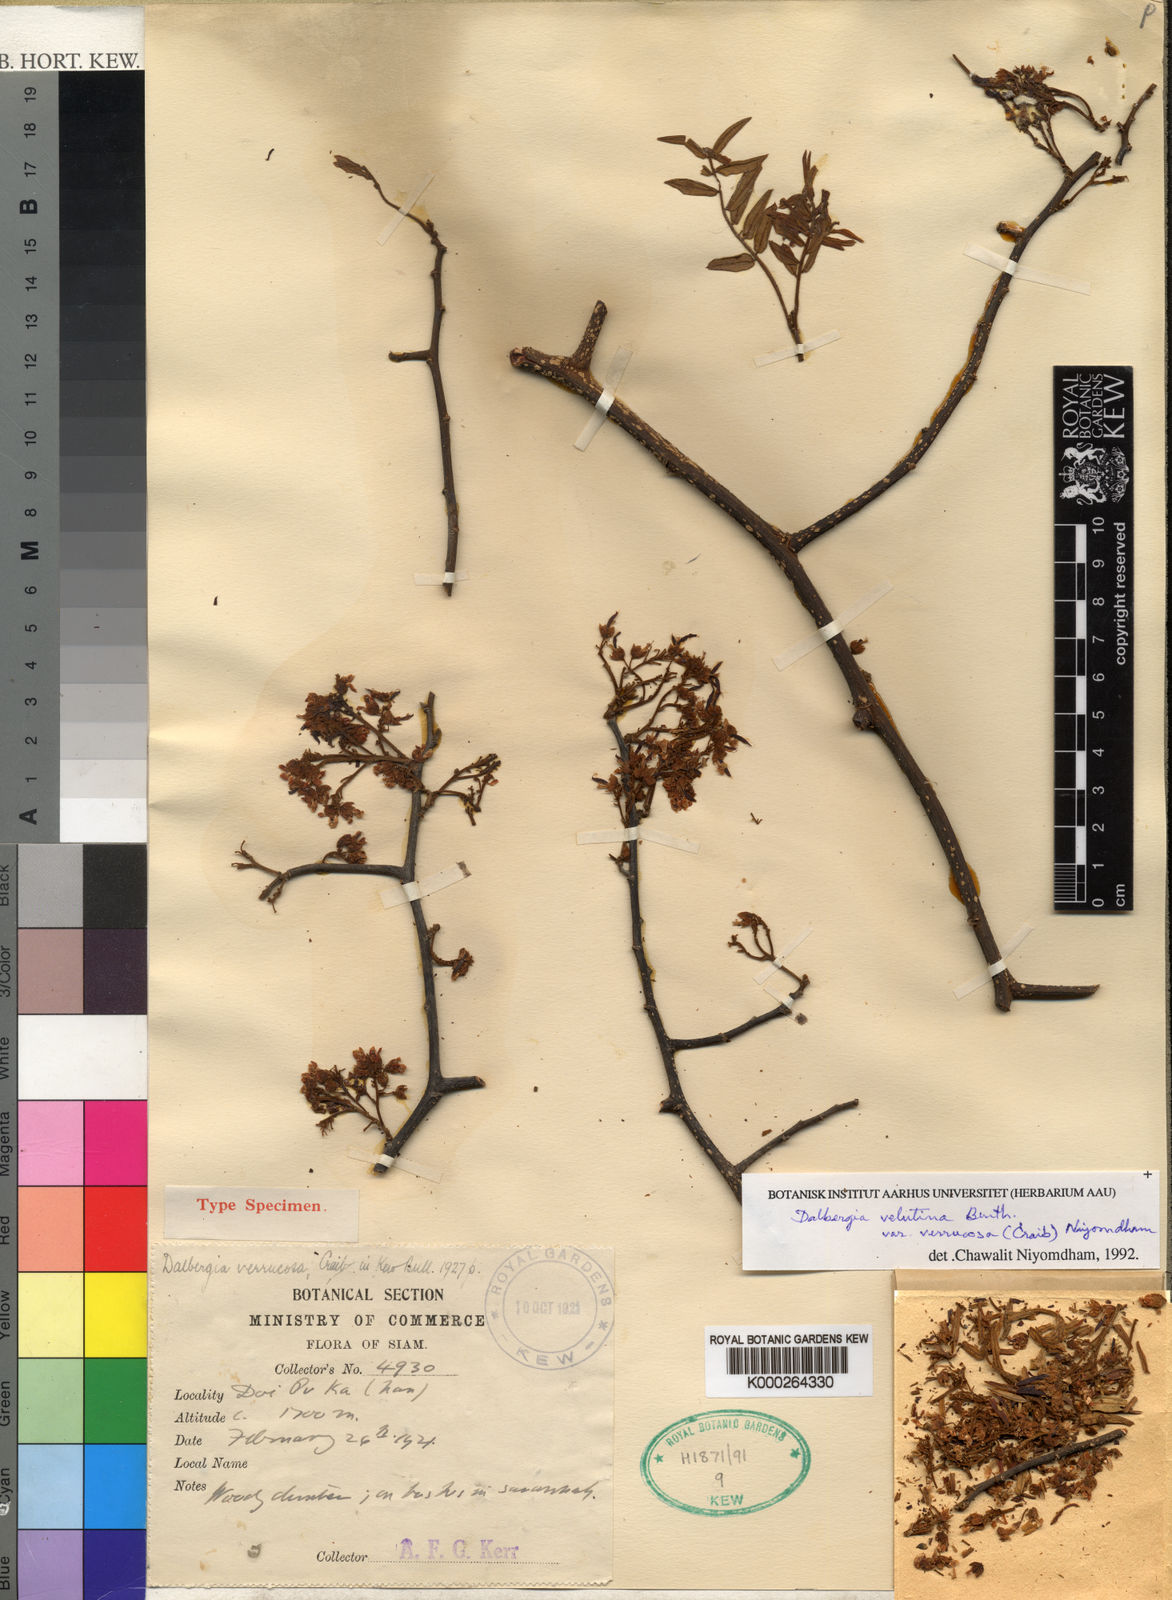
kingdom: Plantae
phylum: Tracheophyta
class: Magnoliopsida
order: Fabales
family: Fabaceae
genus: Dalbergia
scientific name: Dalbergia velutina
